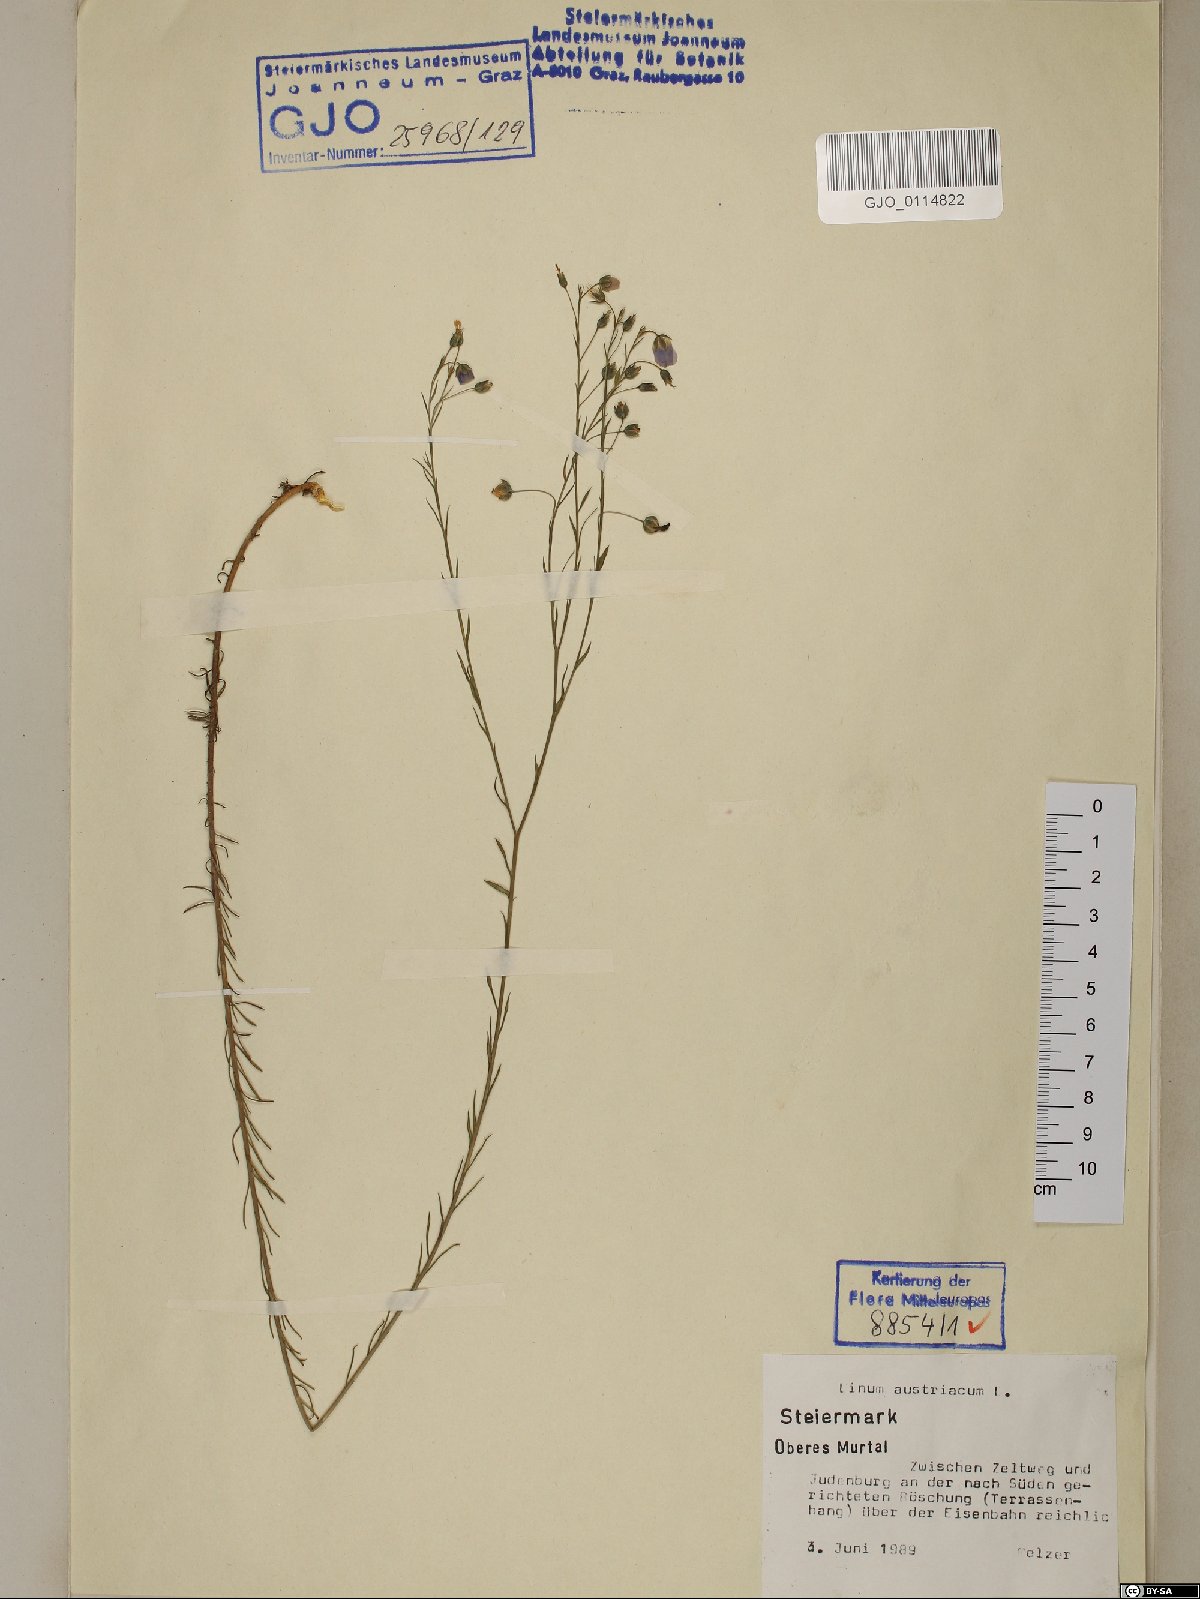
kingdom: Plantae
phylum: Tracheophyta
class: Magnoliopsida
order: Malpighiales
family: Linaceae
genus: Linum
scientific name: Linum austriacum
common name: Austrian flax
